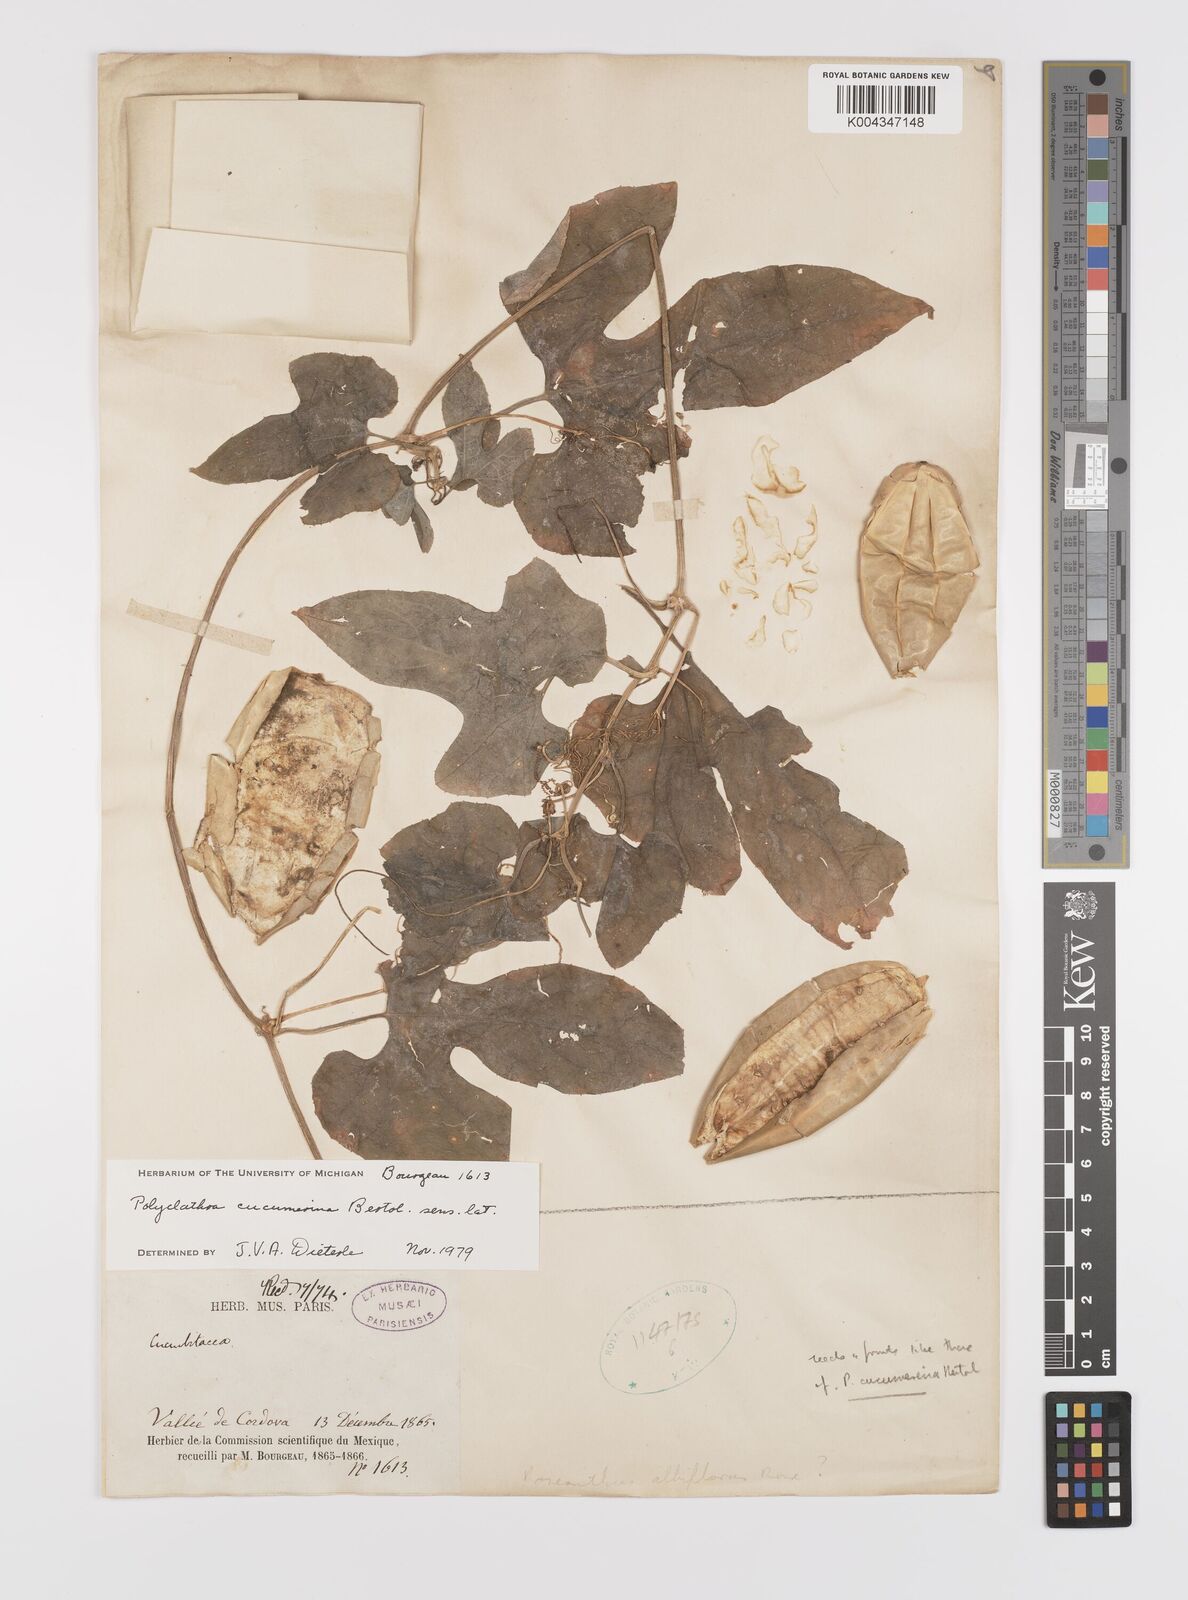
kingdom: Plantae
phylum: Tracheophyta
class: Magnoliopsida
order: Cucurbitales
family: Cucurbitaceae
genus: Polyclathra
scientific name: Polyclathra cucumerina
